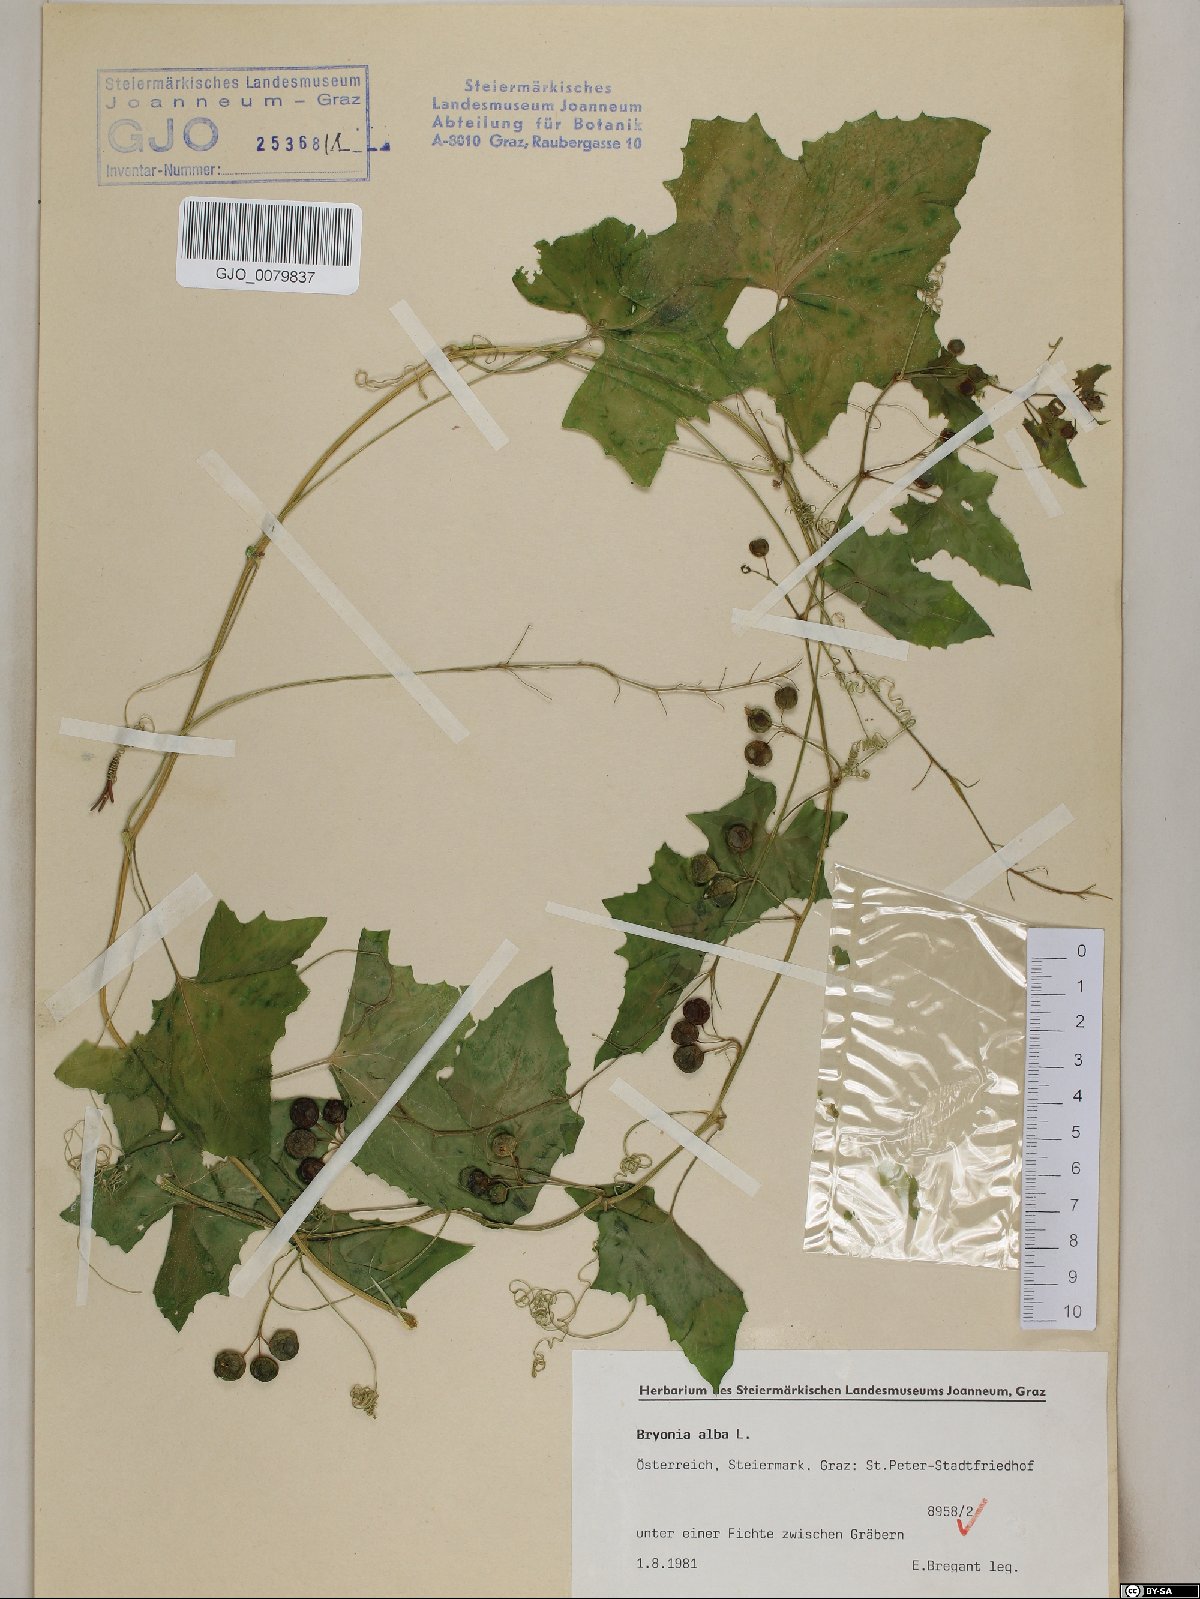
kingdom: Plantae
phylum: Tracheophyta
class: Magnoliopsida
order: Cucurbitales
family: Cucurbitaceae
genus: Bryonia
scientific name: Bryonia alba
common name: White bryony
